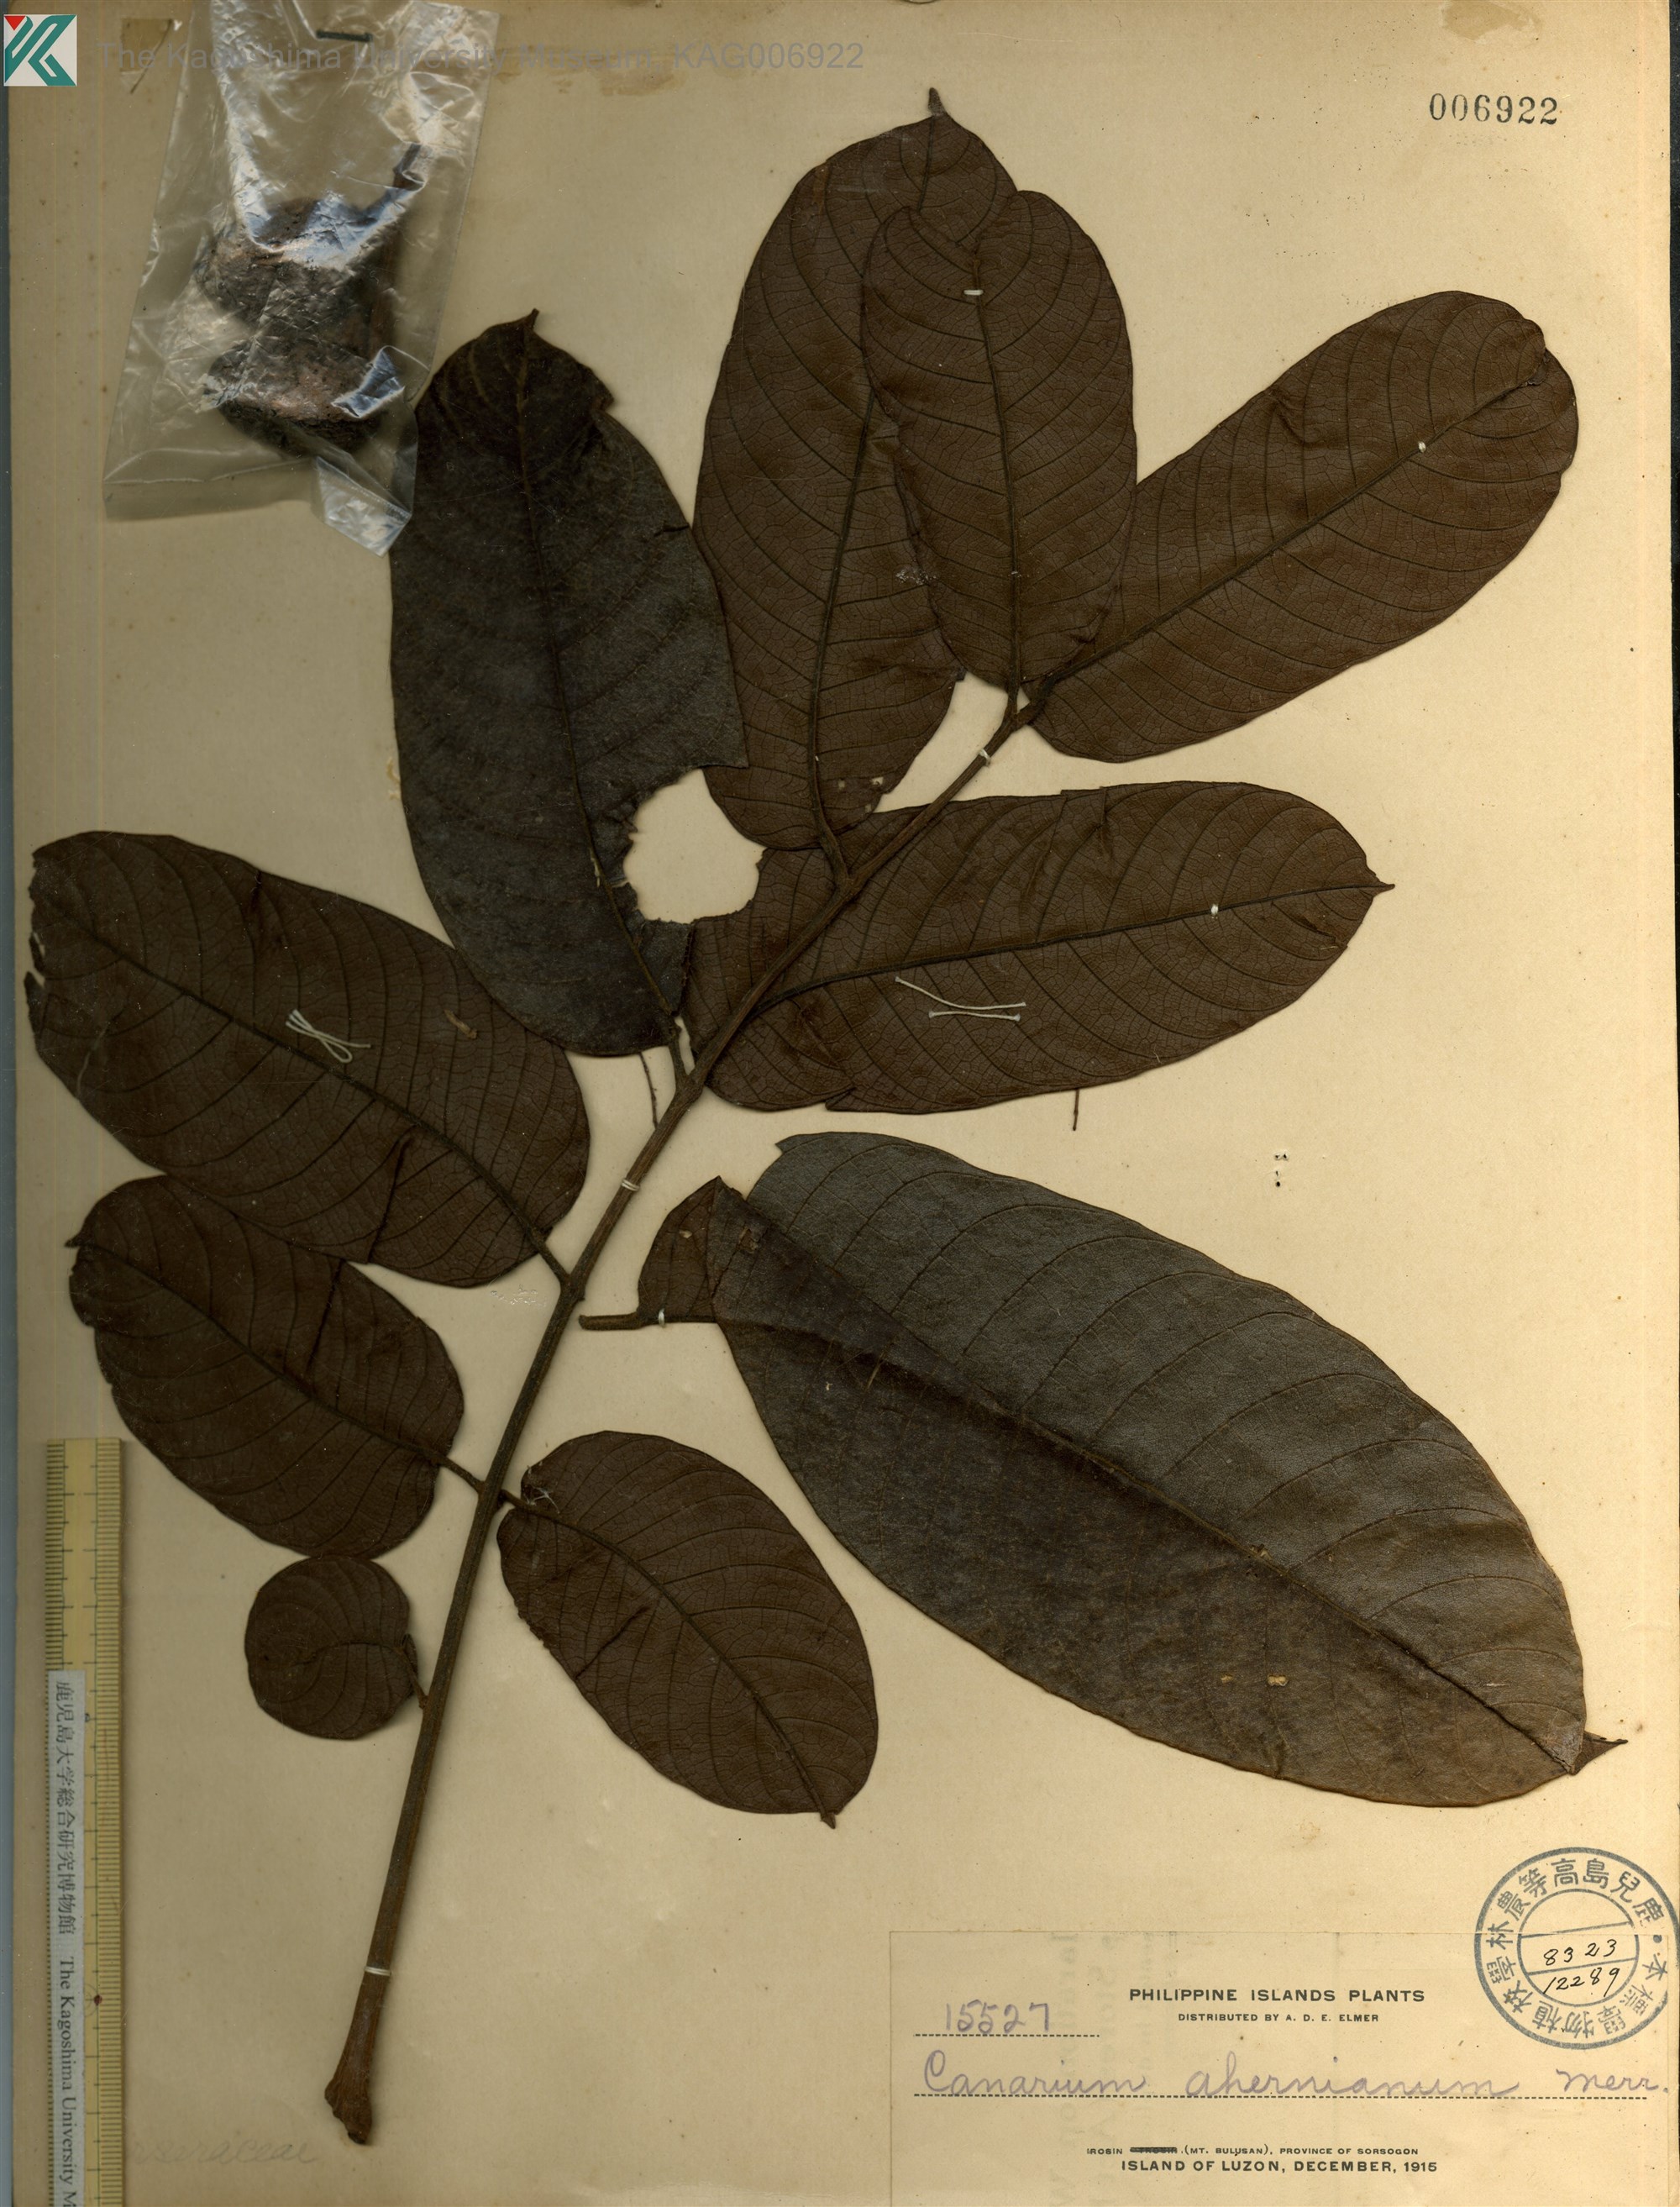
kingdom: Plantae
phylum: Tracheophyta
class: Magnoliopsida
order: Sapindales
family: Burseraceae
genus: Canarium
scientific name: Canarium hirsutum
